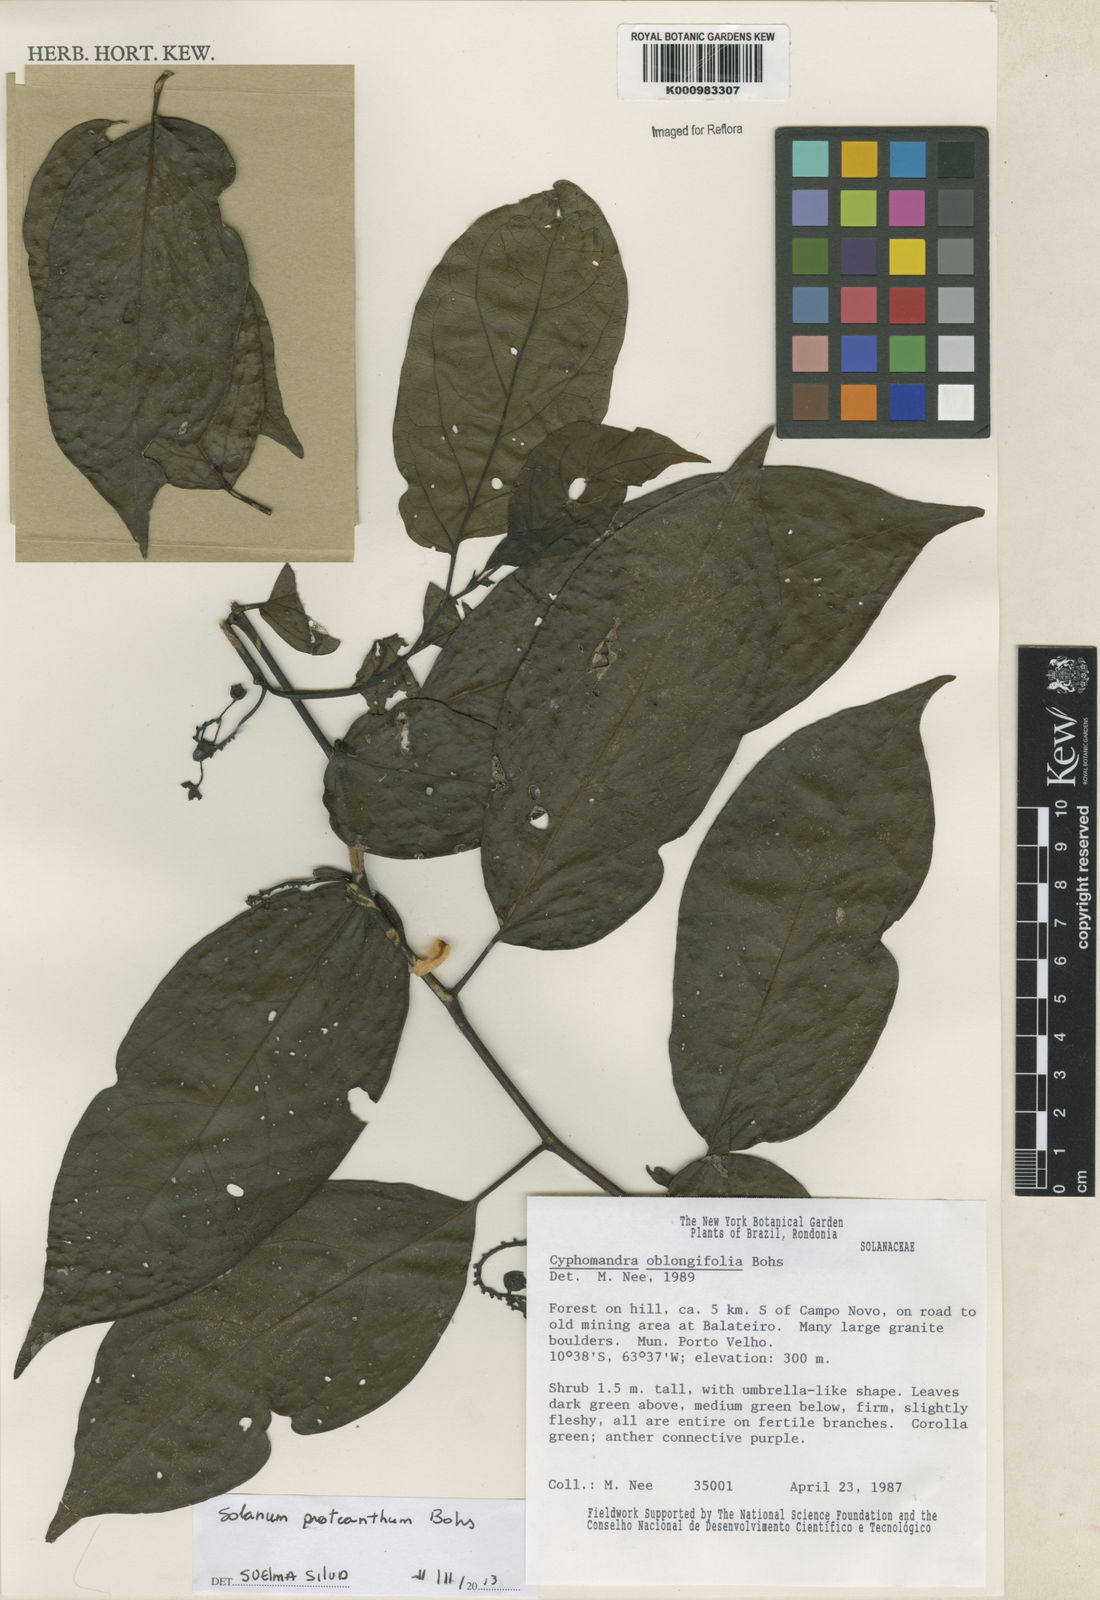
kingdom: Plantae
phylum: Tracheophyta
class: Magnoliopsida
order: Solanales
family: Solanaceae
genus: Solanum
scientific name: Solanum proteanthum
